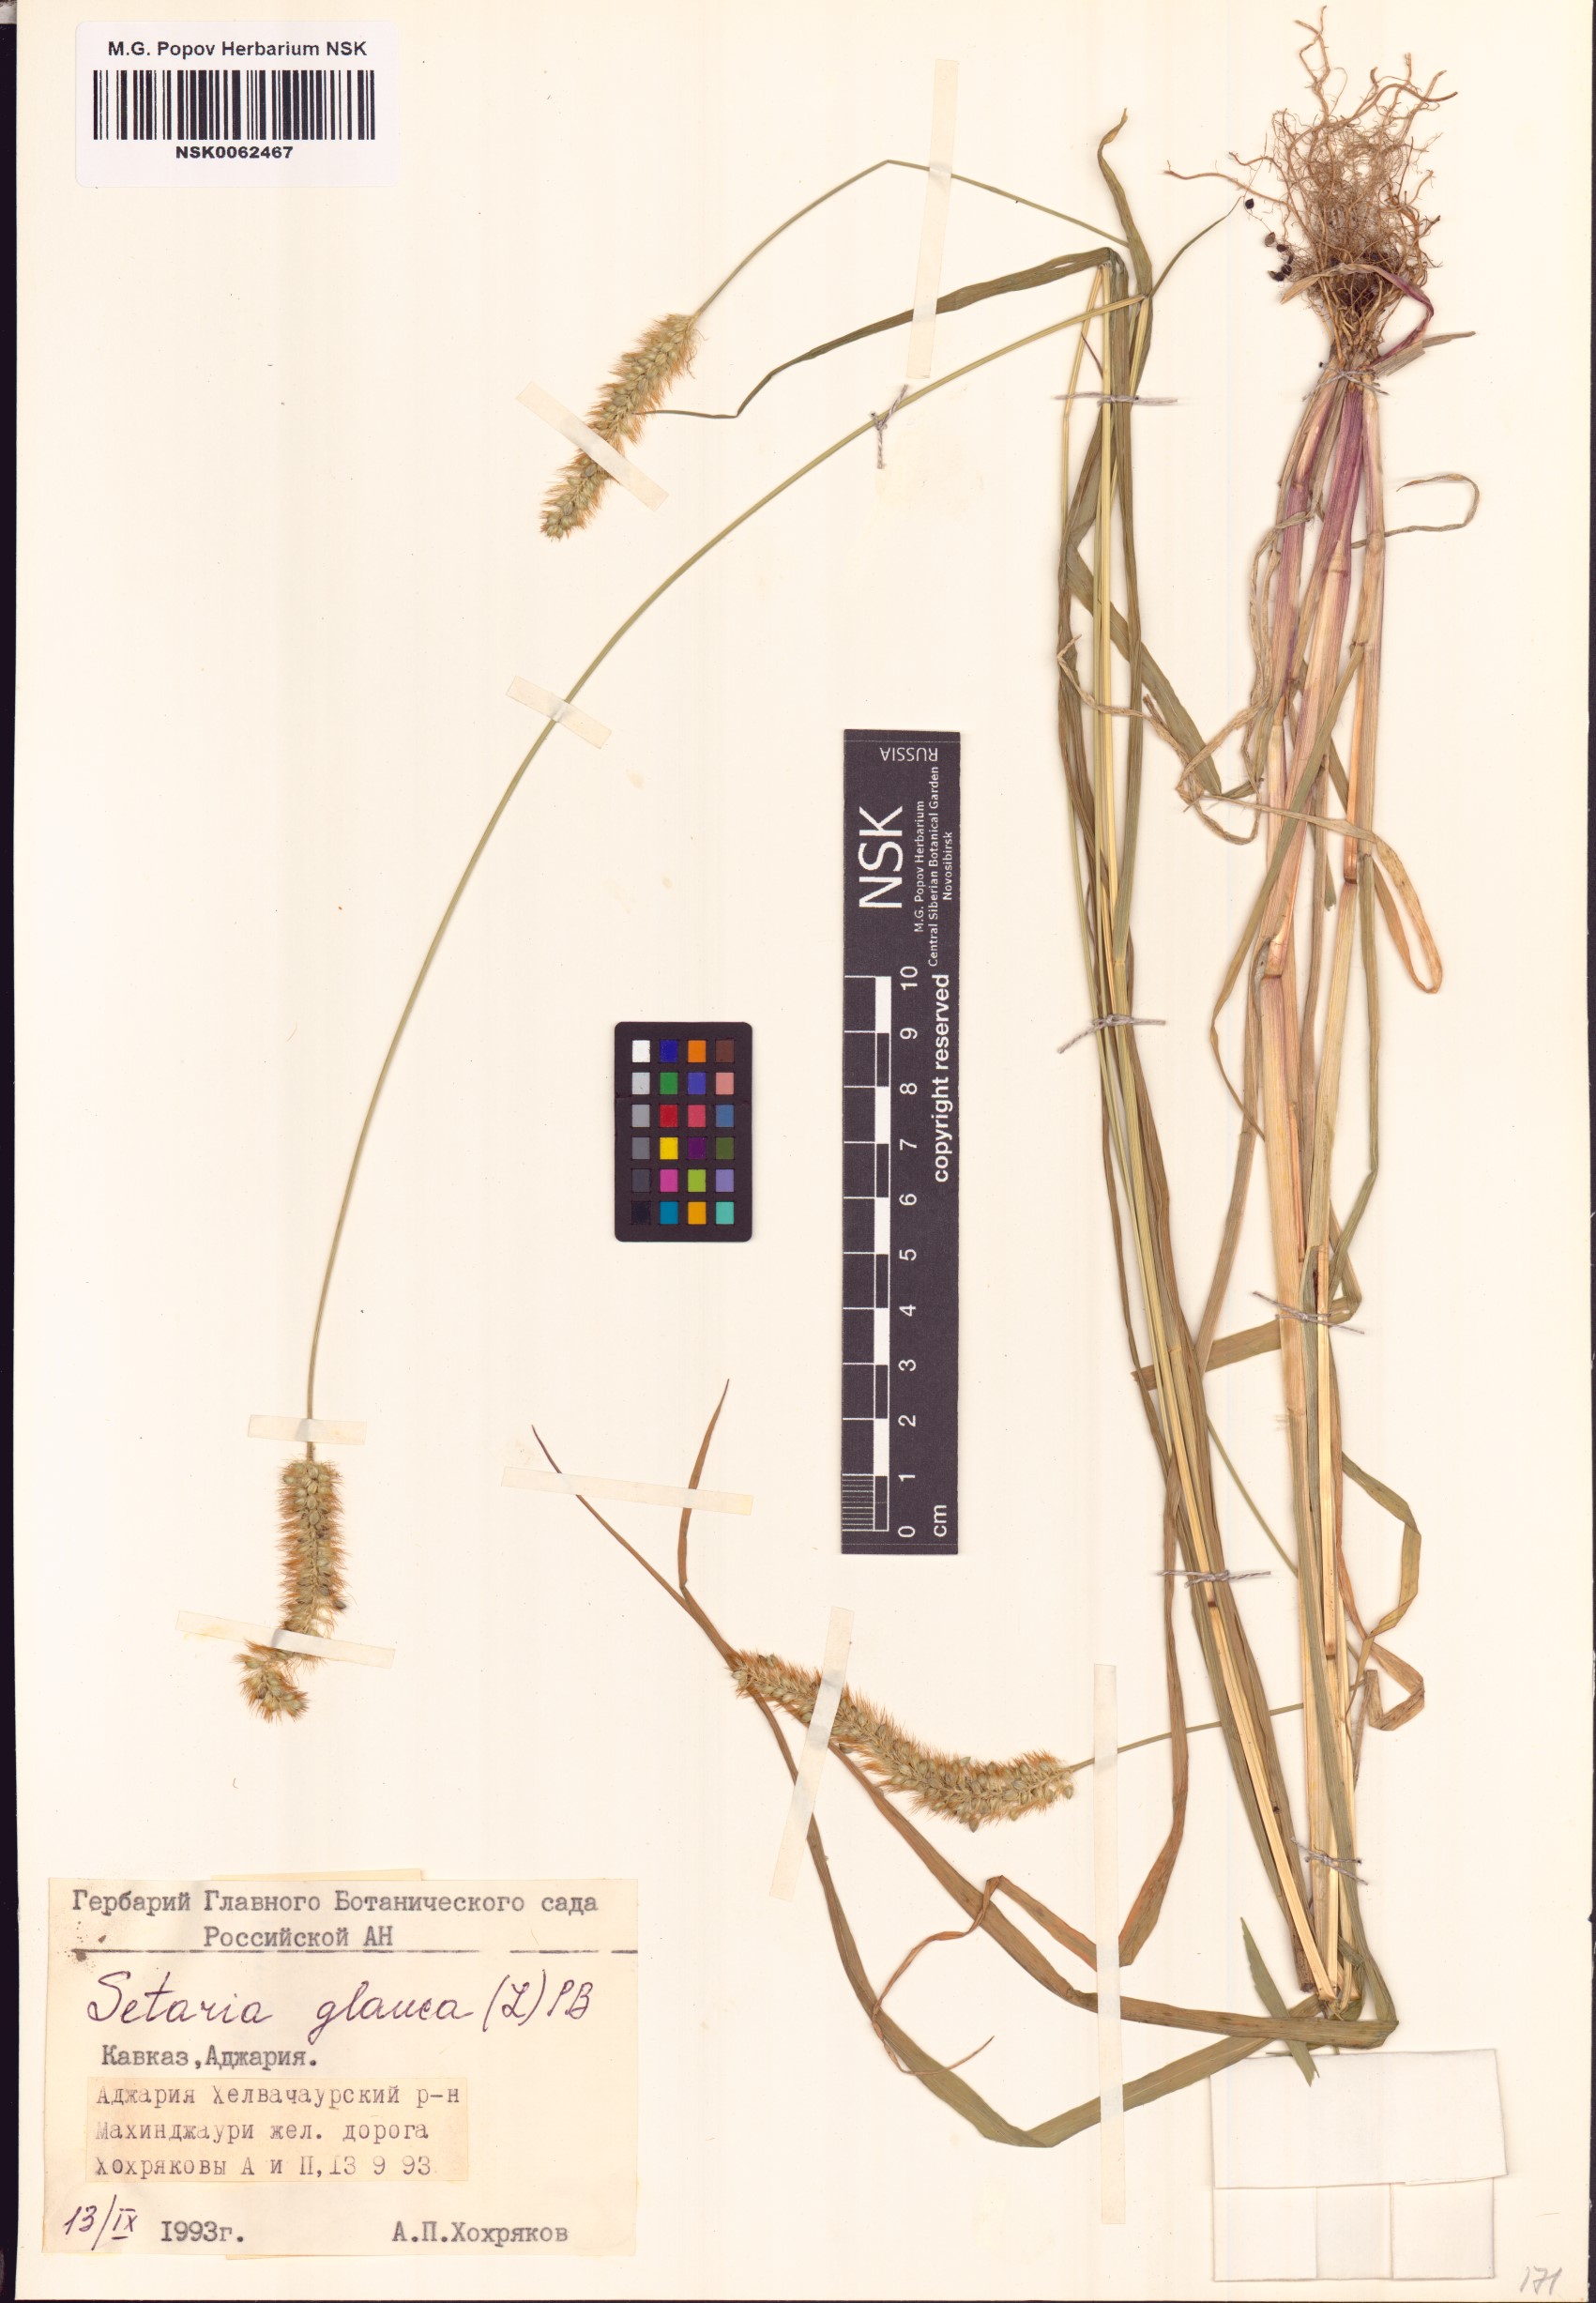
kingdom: Plantae
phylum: Tracheophyta
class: Liliopsida
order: Poales
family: Poaceae
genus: Cenchrus
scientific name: Cenchrus americanus
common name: Pearl millet
